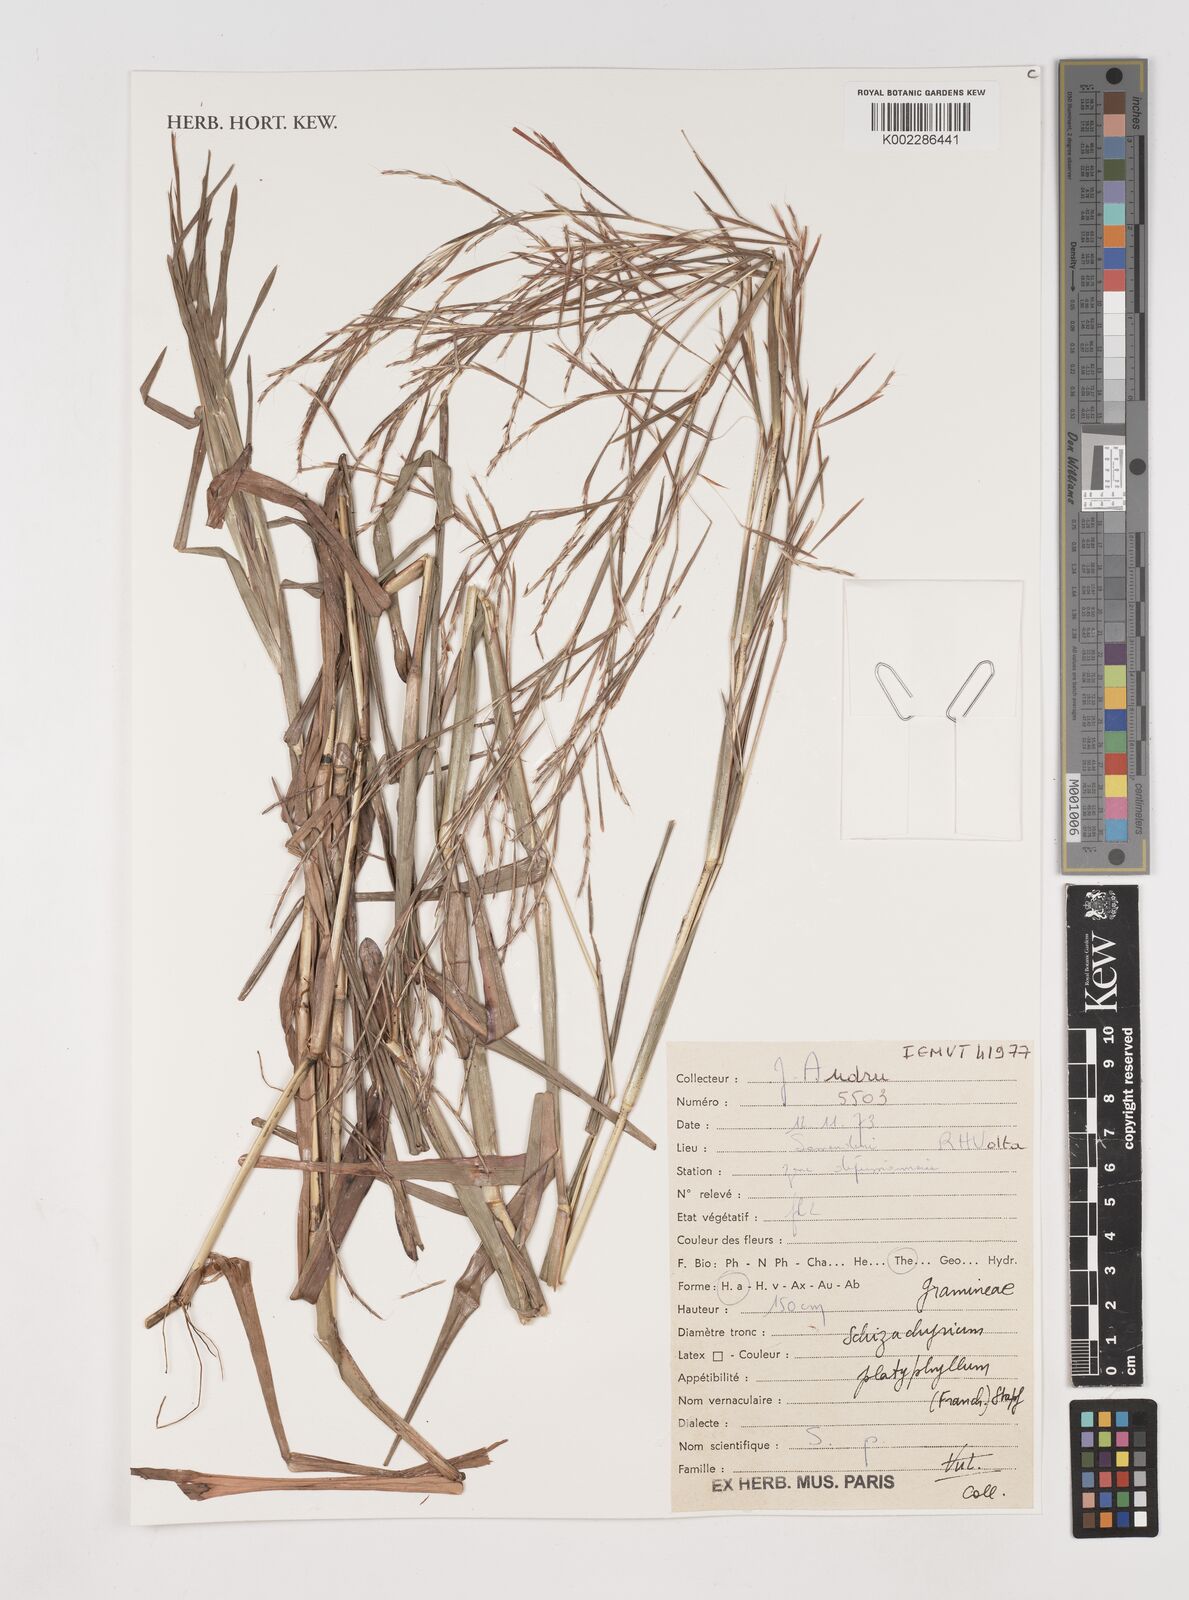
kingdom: Plantae
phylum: Tracheophyta
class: Liliopsida
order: Poales
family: Poaceae
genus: Schizachyrium
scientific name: Schizachyrium platyphyllum
